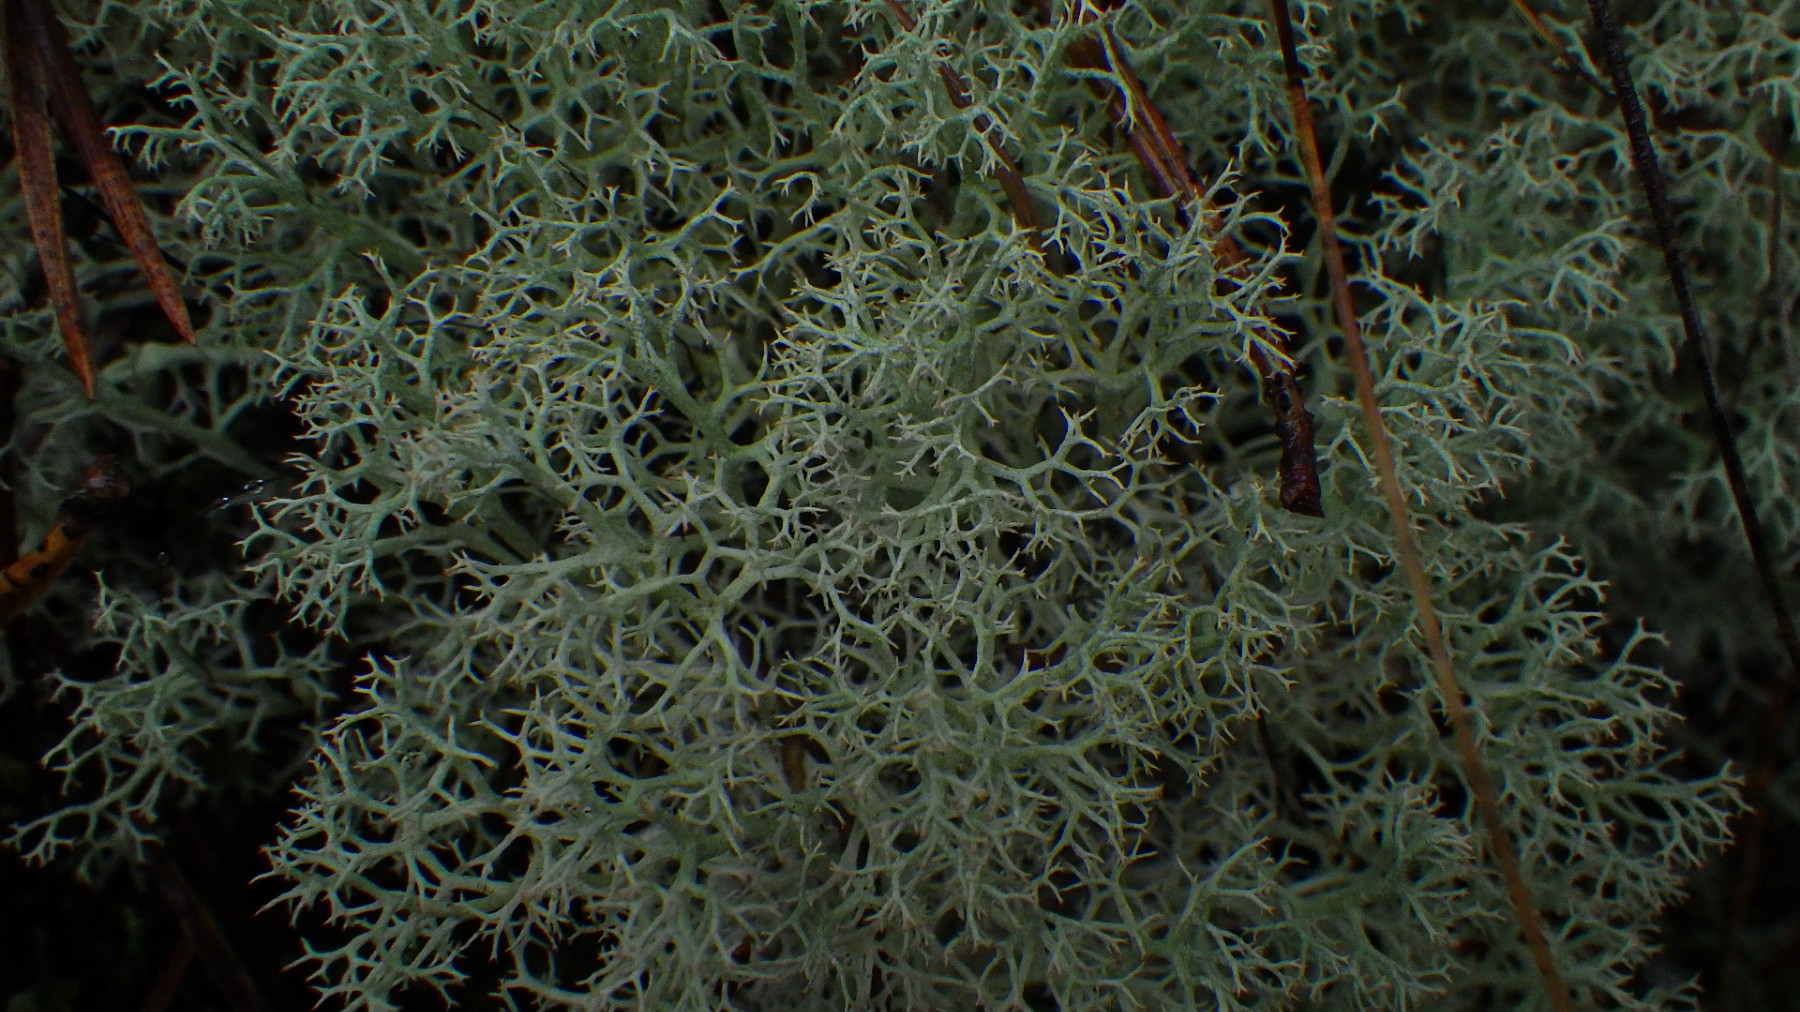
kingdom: Fungi
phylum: Ascomycota
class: Lecanoromycetes
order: Lecanorales
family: Cladoniaceae
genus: Cladonia
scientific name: Cladonia portentosa
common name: hede-rensdyrlav
